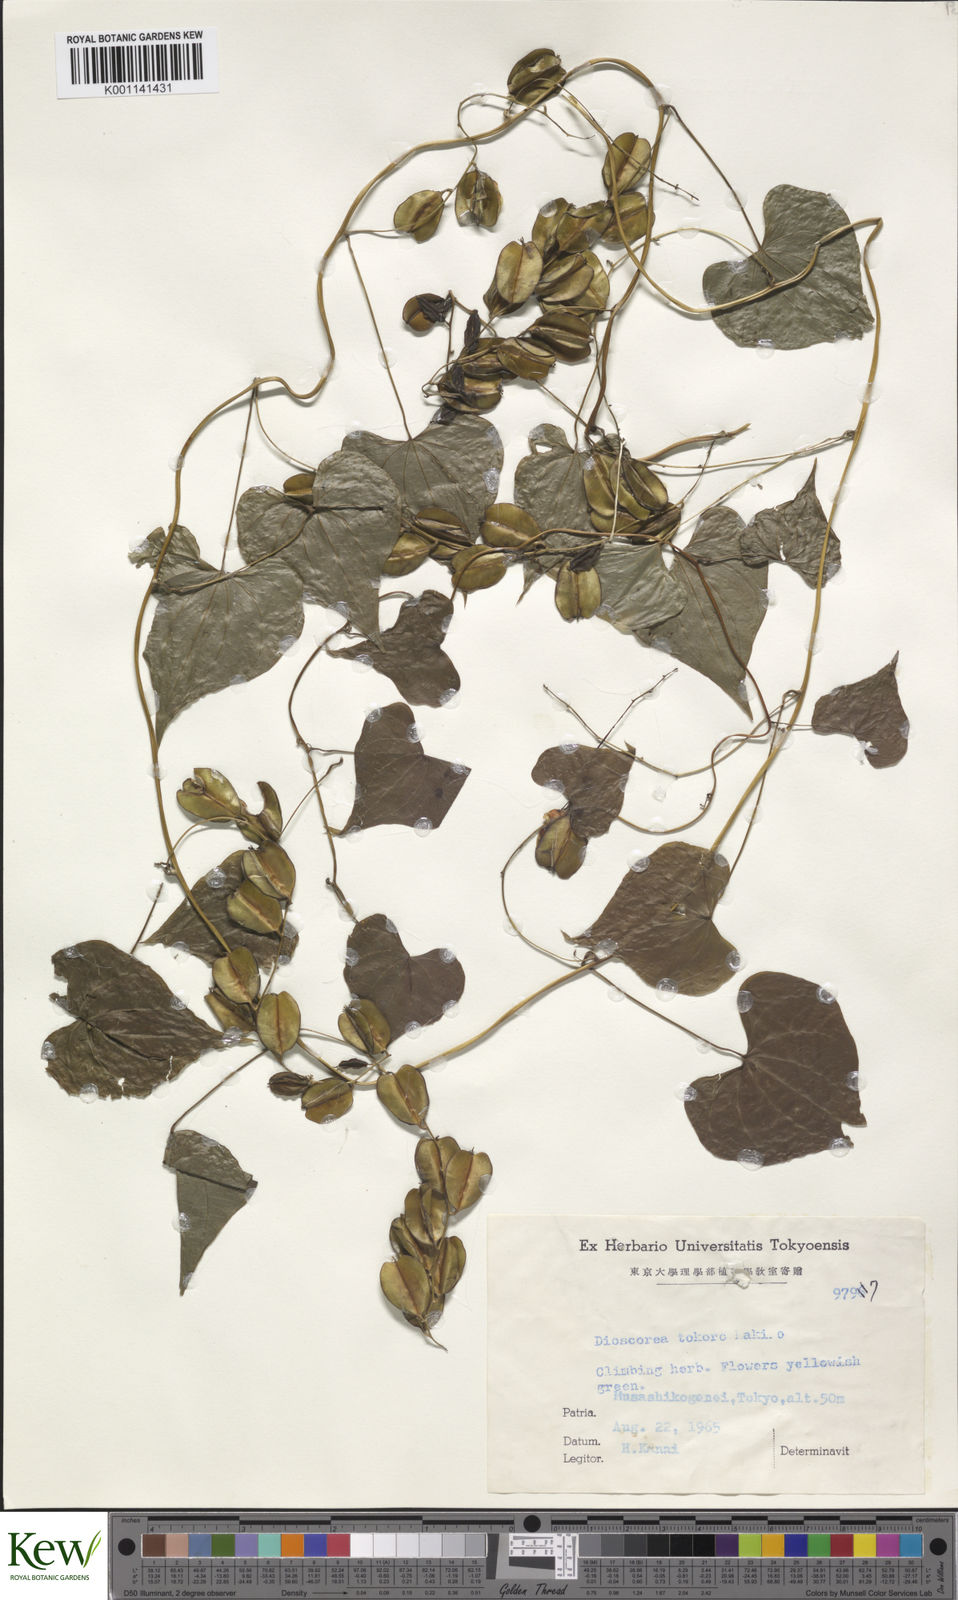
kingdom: Plantae
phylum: Tracheophyta
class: Liliopsida
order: Dioscoreales
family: Dioscoreaceae
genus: Dioscorea
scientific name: Dioscorea tokoro
